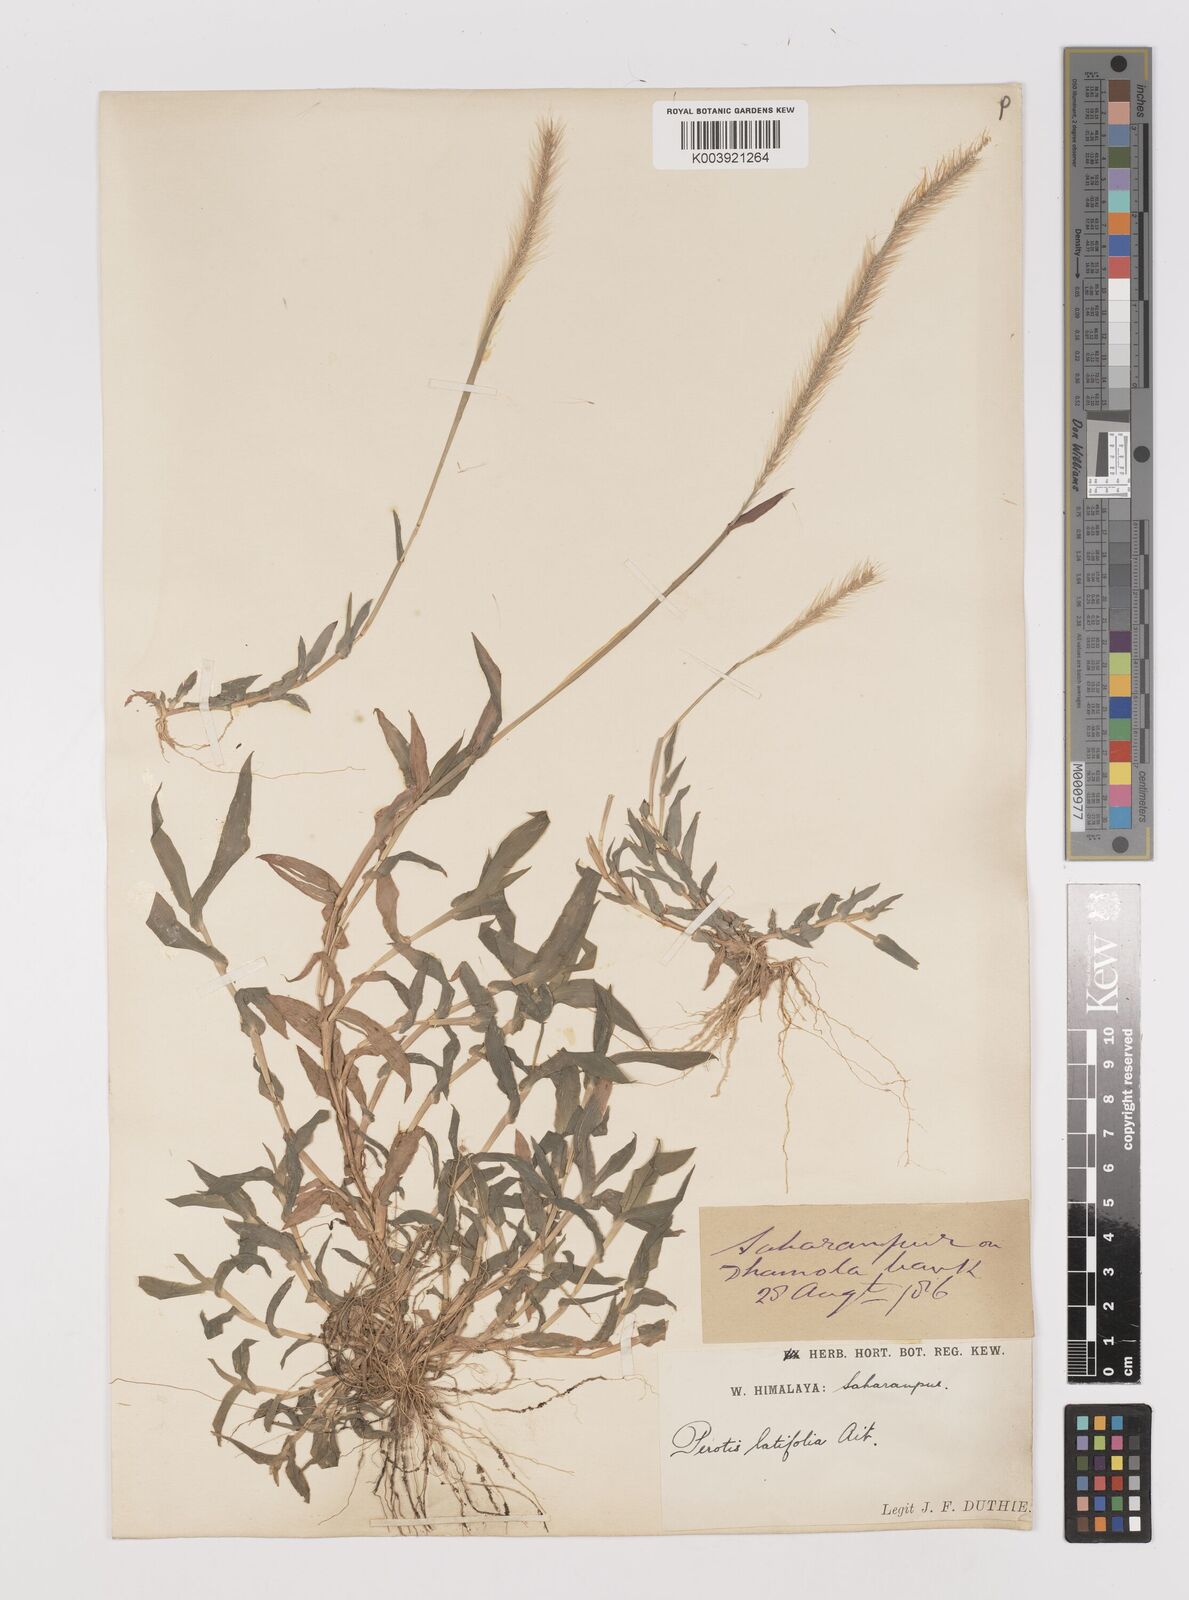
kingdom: Plantae
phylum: Tracheophyta
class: Liliopsida
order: Poales
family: Poaceae
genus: Perotis
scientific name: Perotis hordeiformis
